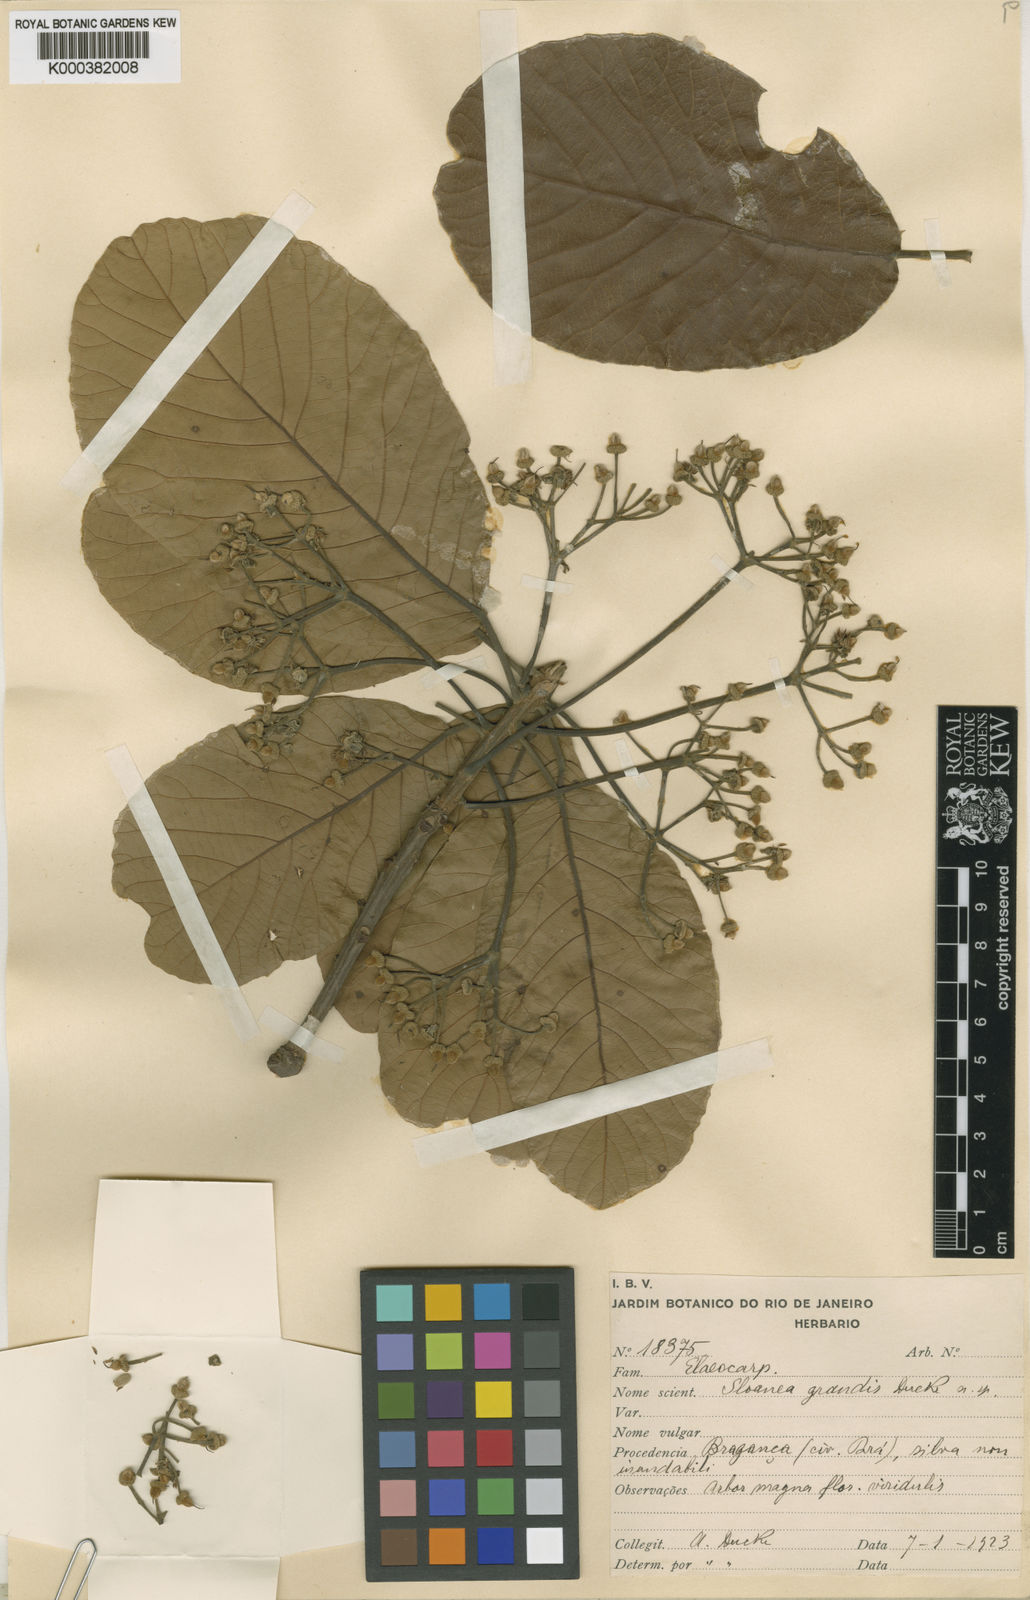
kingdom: Plantae
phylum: Tracheophyta
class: Magnoliopsida
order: Oxalidales
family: Elaeocarpaceae
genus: Sloanea
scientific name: Sloanea grandis
